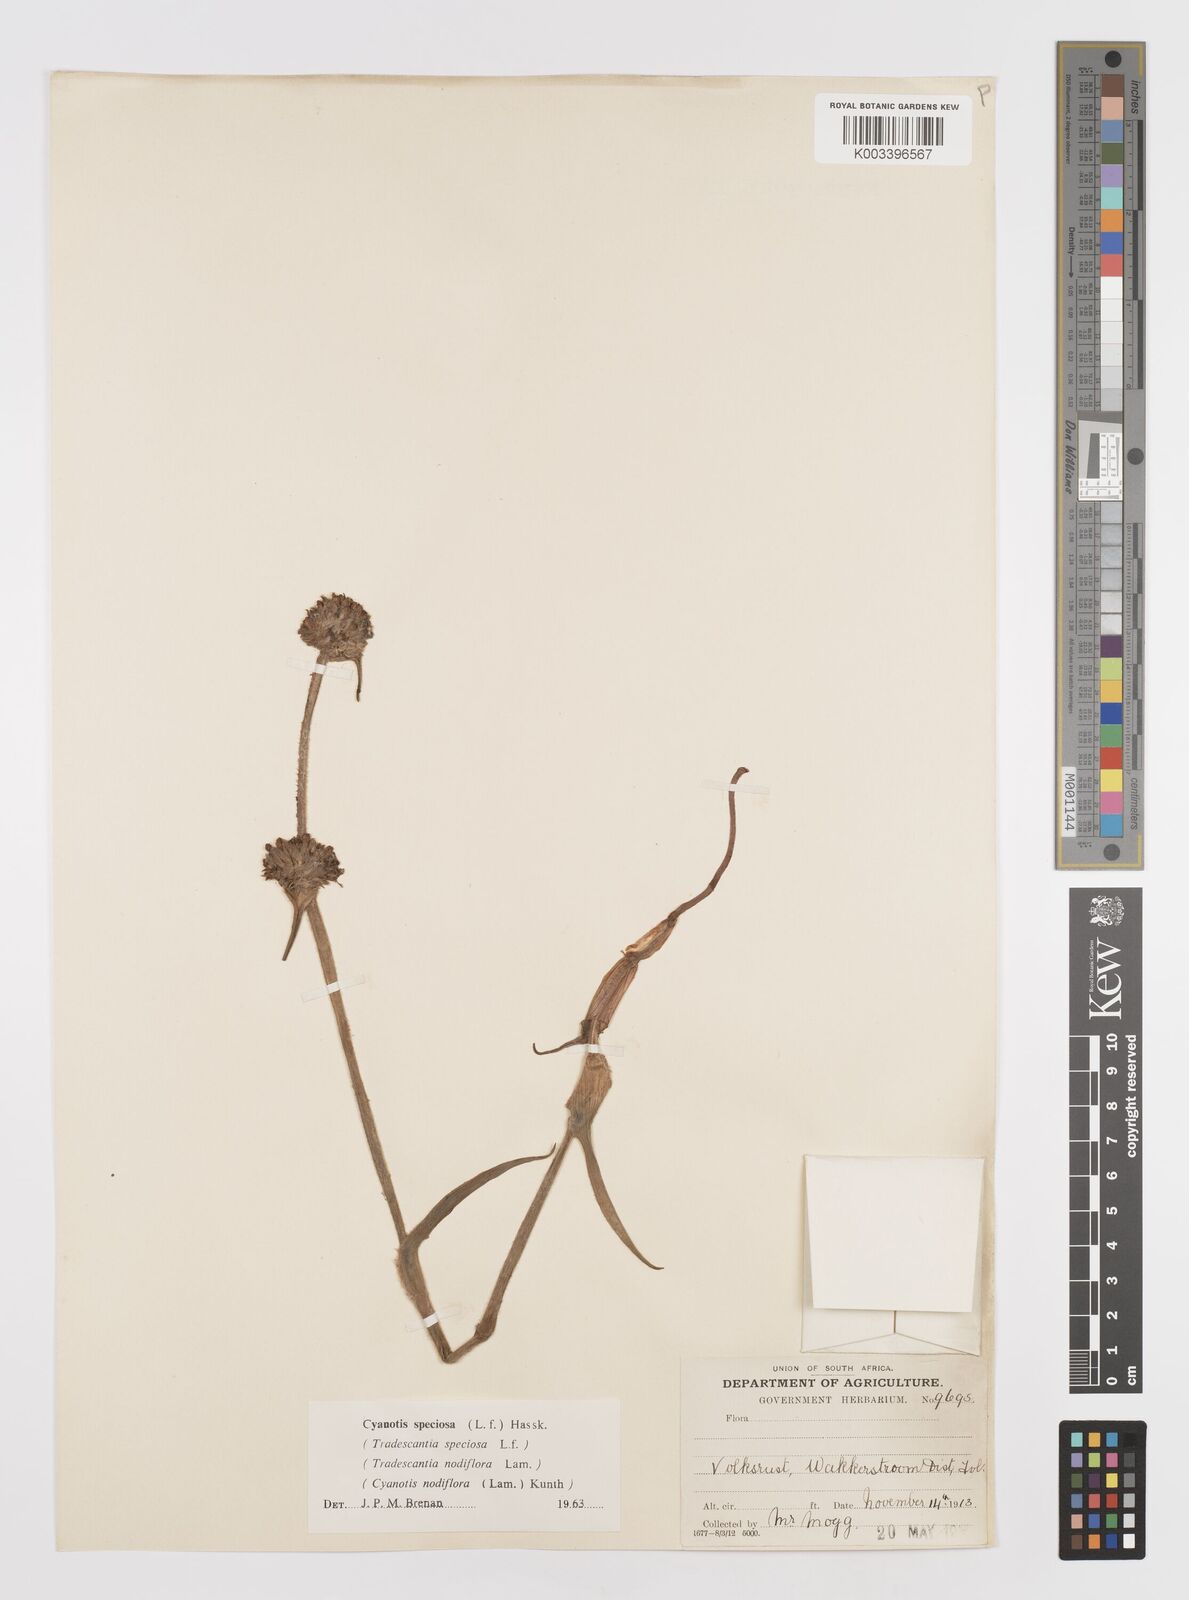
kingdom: Plantae
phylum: Tracheophyta
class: Liliopsida
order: Commelinales
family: Commelinaceae
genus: Cyanotis
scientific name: Cyanotis speciosa
